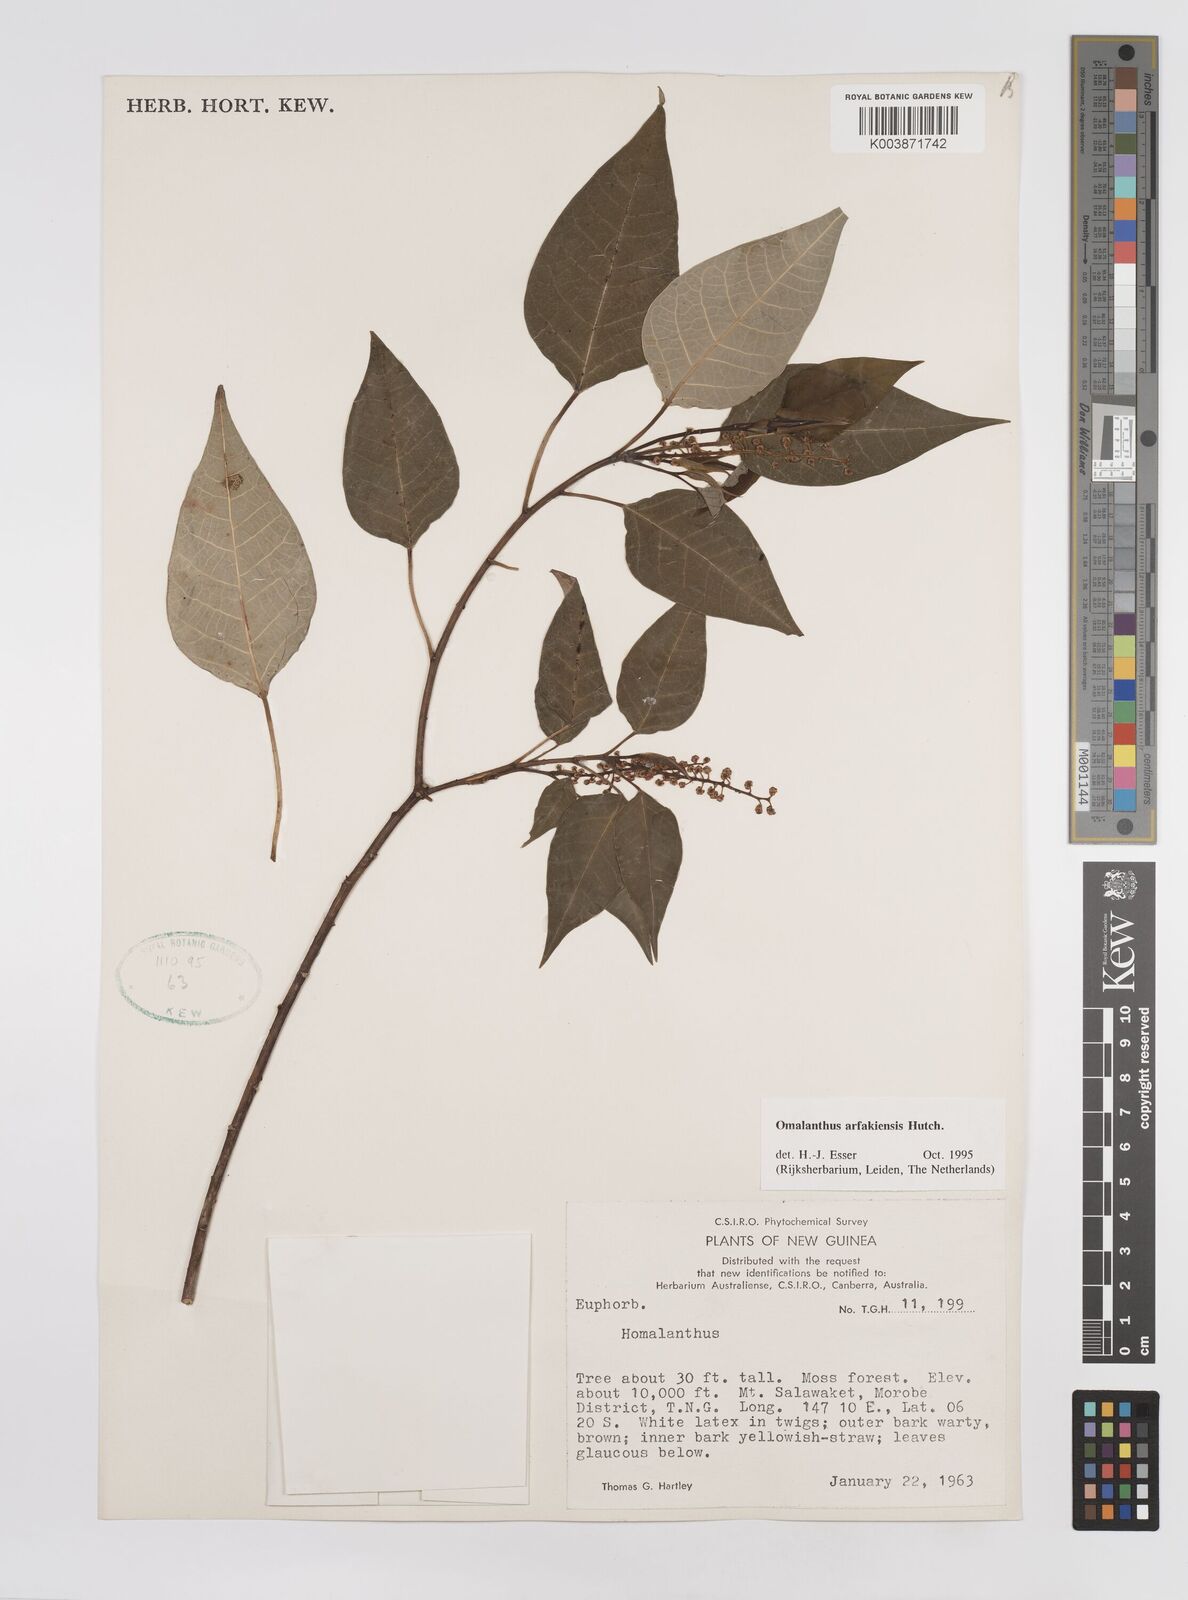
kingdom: Plantae
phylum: Tracheophyta
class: Magnoliopsida
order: Malpighiales
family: Euphorbiaceae
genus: Homalanthus
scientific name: Homalanthus arfakiensis
